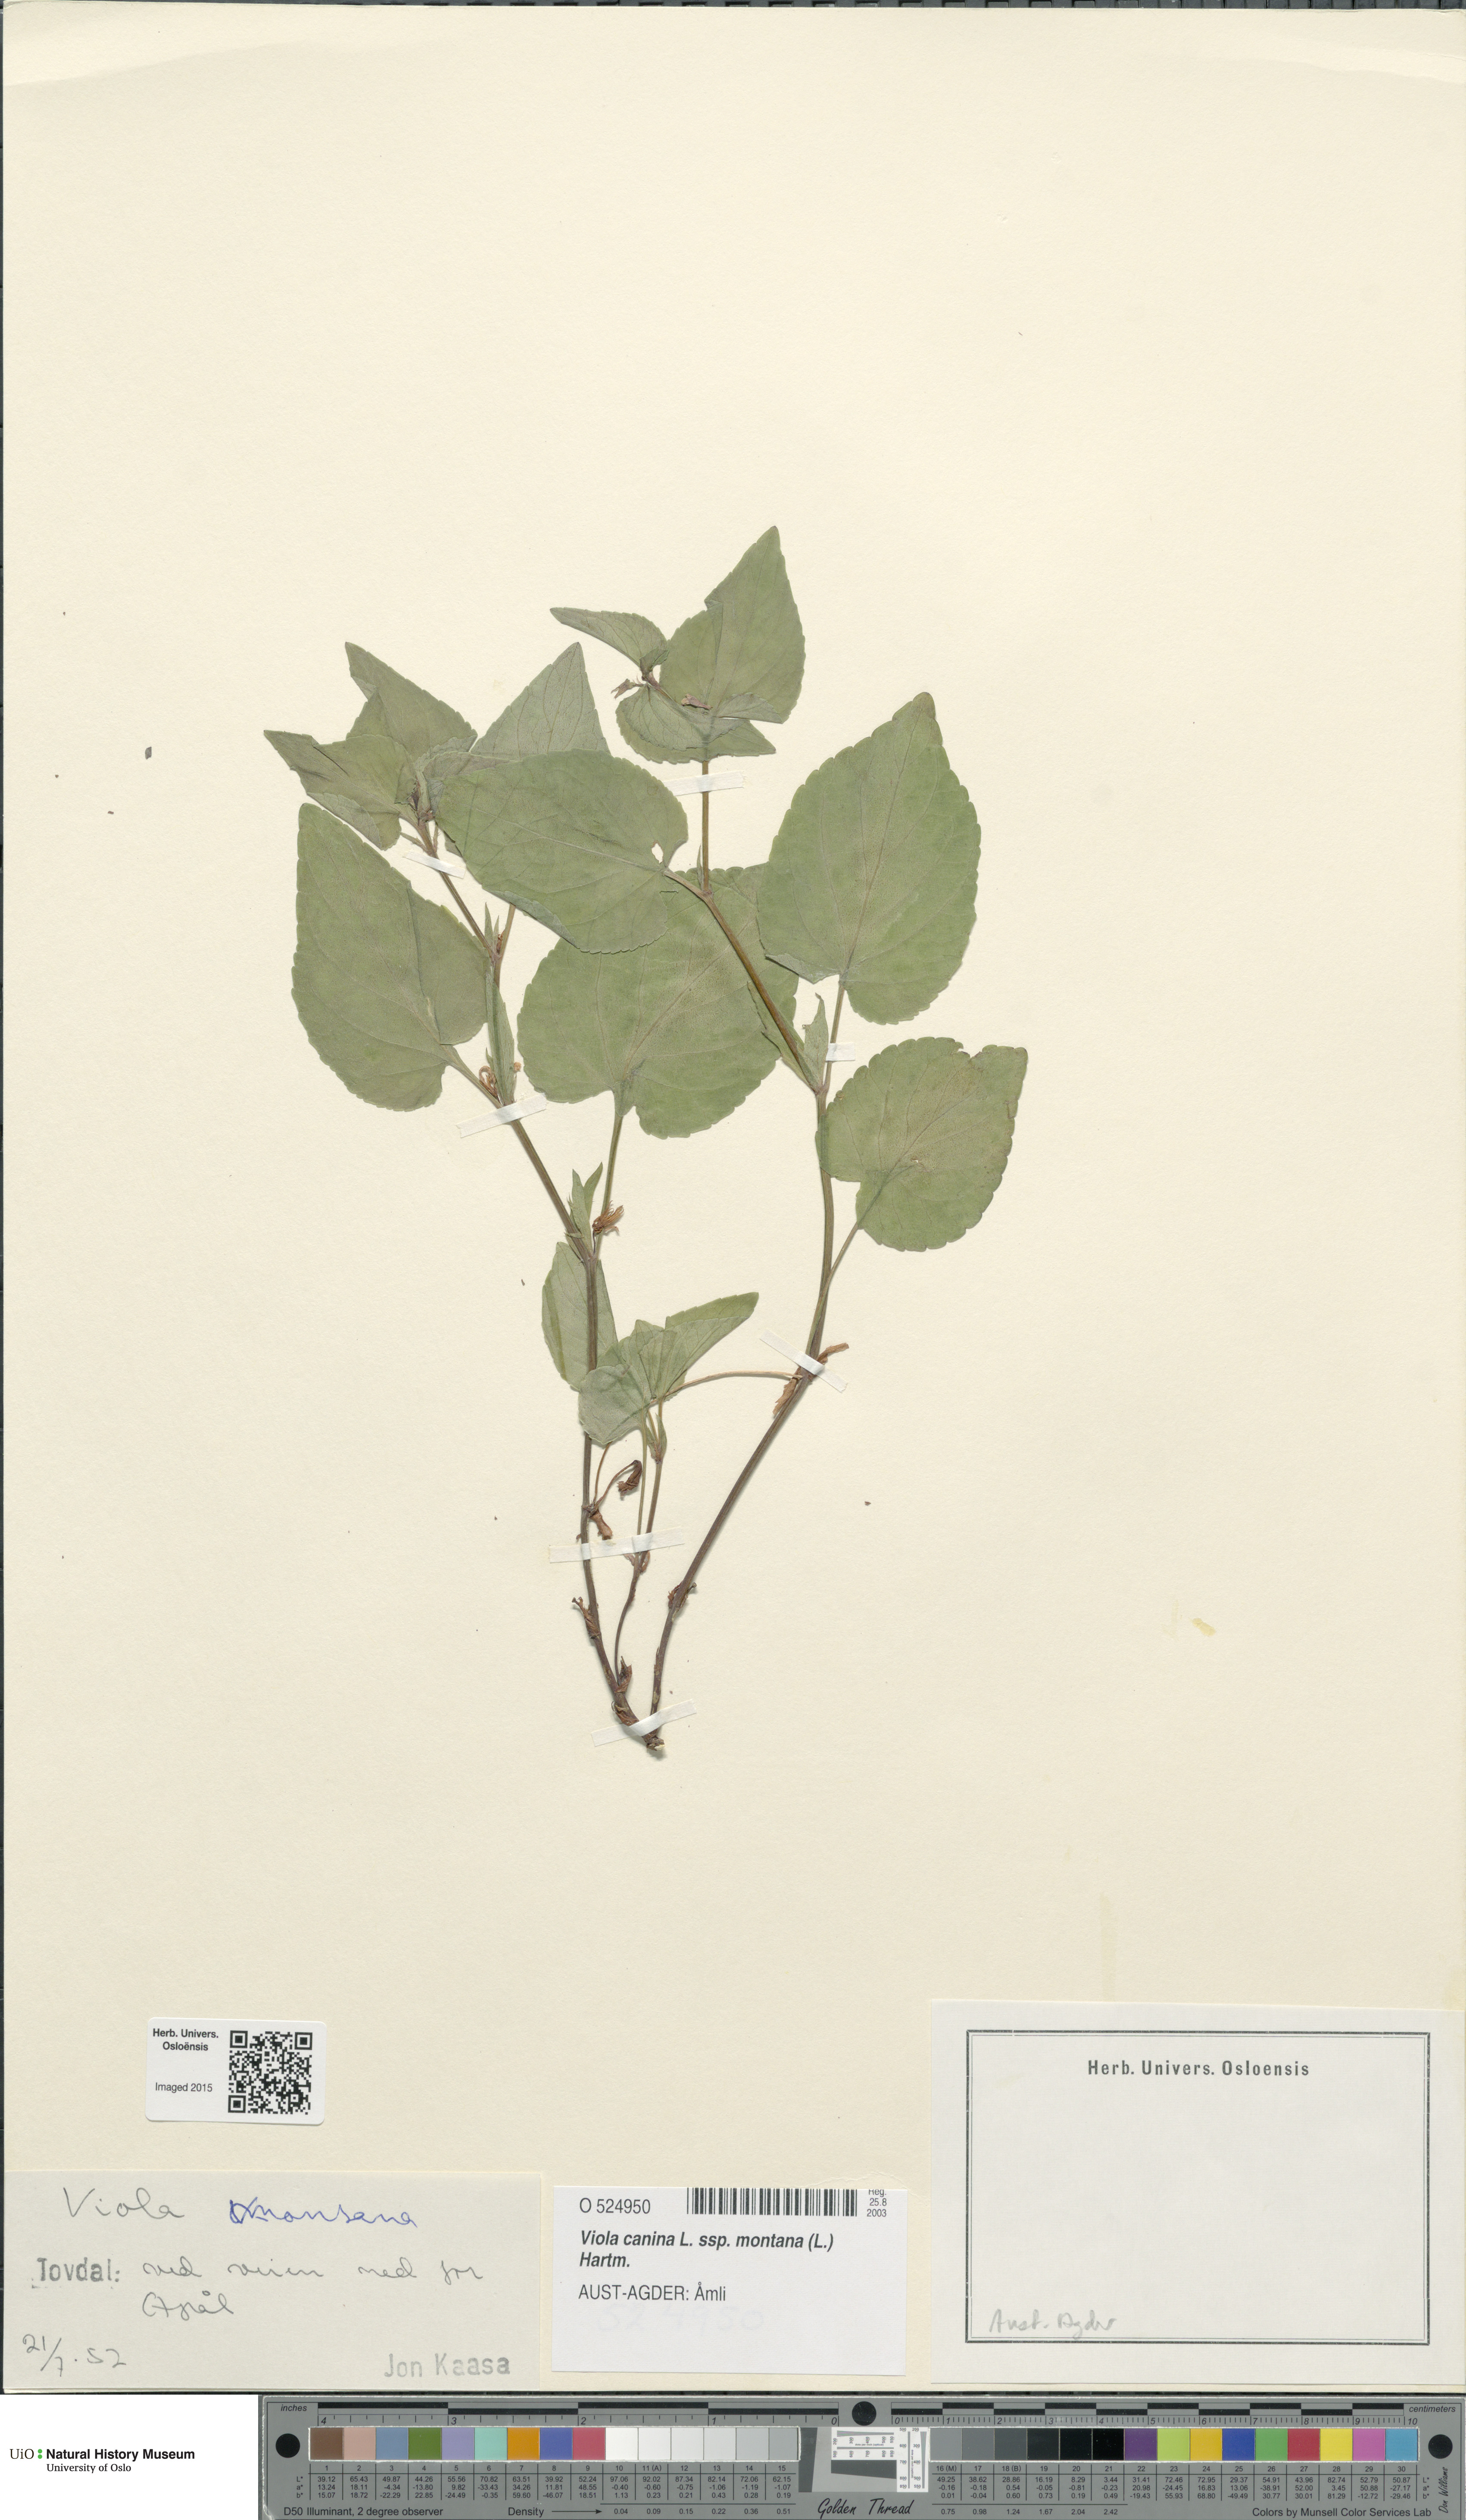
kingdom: Plantae
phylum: Tracheophyta
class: Magnoliopsida
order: Malpighiales
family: Violaceae
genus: Viola
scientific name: Viola ruppii
